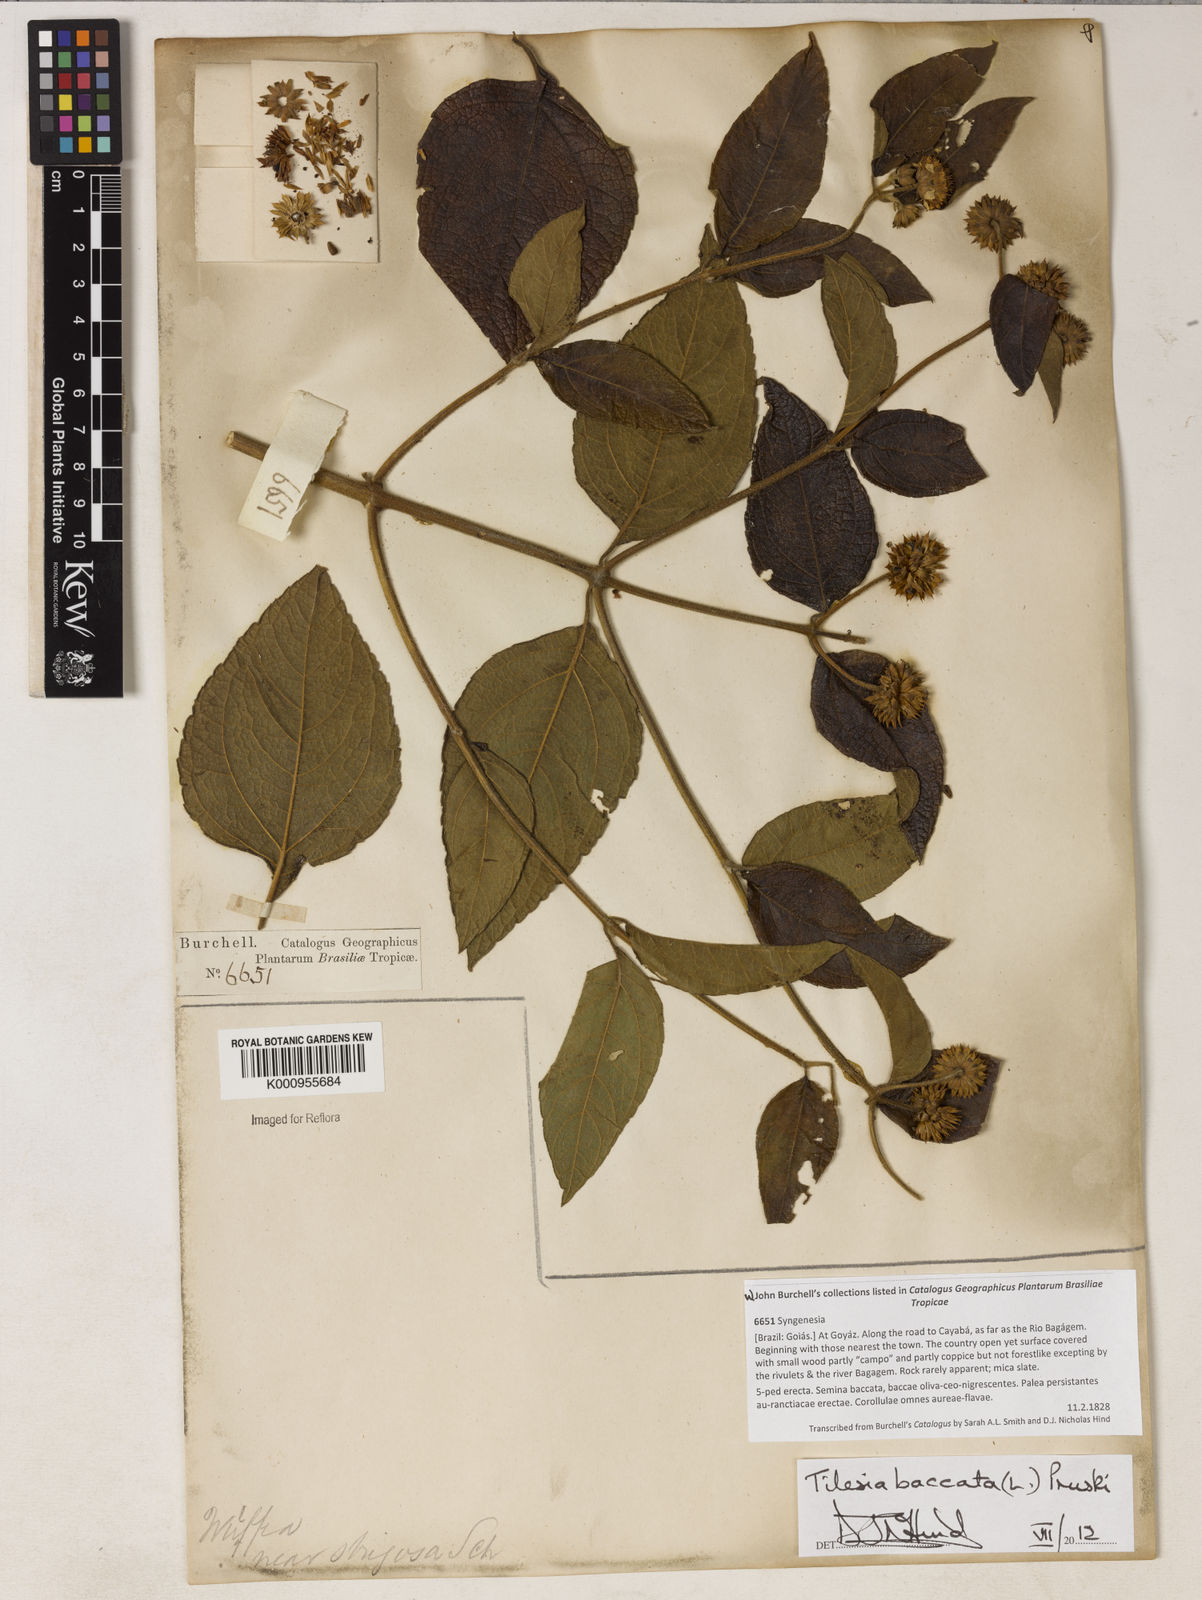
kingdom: Plantae
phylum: Tracheophyta
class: Magnoliopsida
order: Asterales
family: Asteraceae
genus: Tilesia
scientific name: Tilesia baccata
